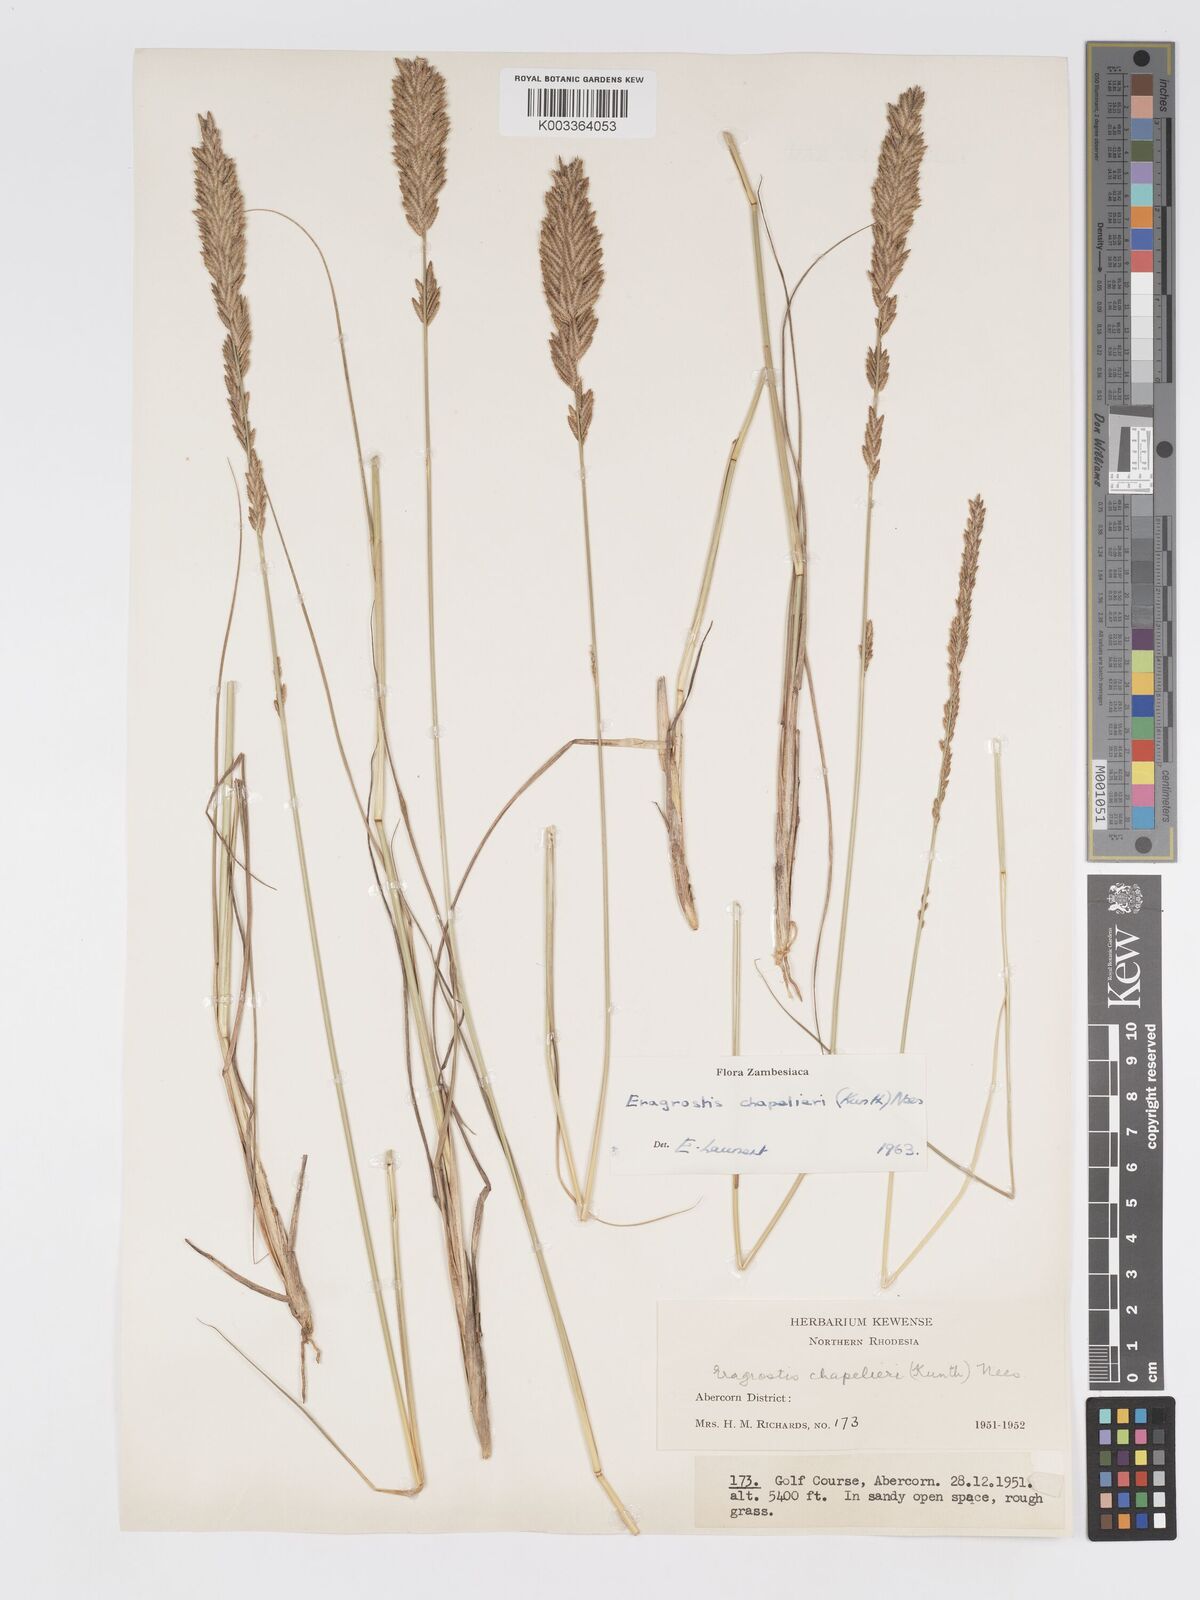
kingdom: Plantae
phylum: Tracheophyta
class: Liliopsida
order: Poales
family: Poaceae
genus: Eragrostis
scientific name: Eragrostis chapelieri
